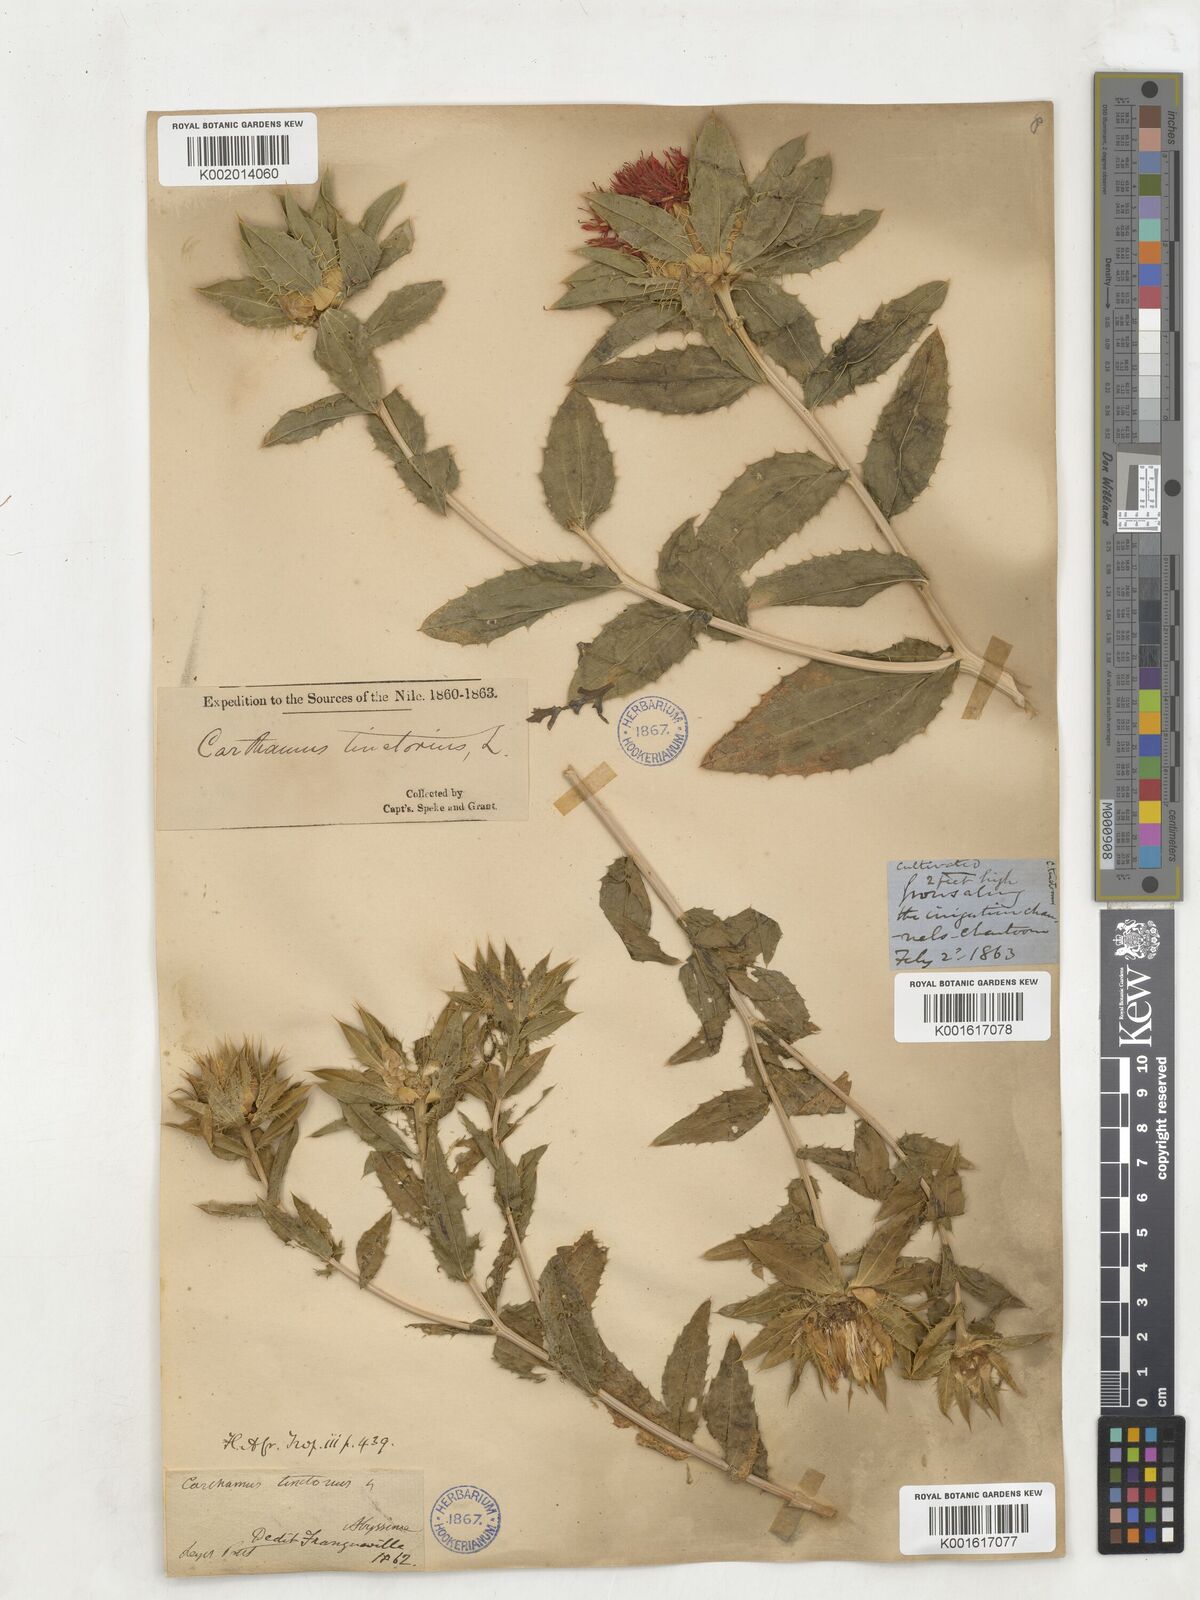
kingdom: Plantae
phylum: Tracheophyta
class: Magnoliopsida
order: Asterales
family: Asteraceae
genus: Carthamus
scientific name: Carthamus tinctorius
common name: Safflower
